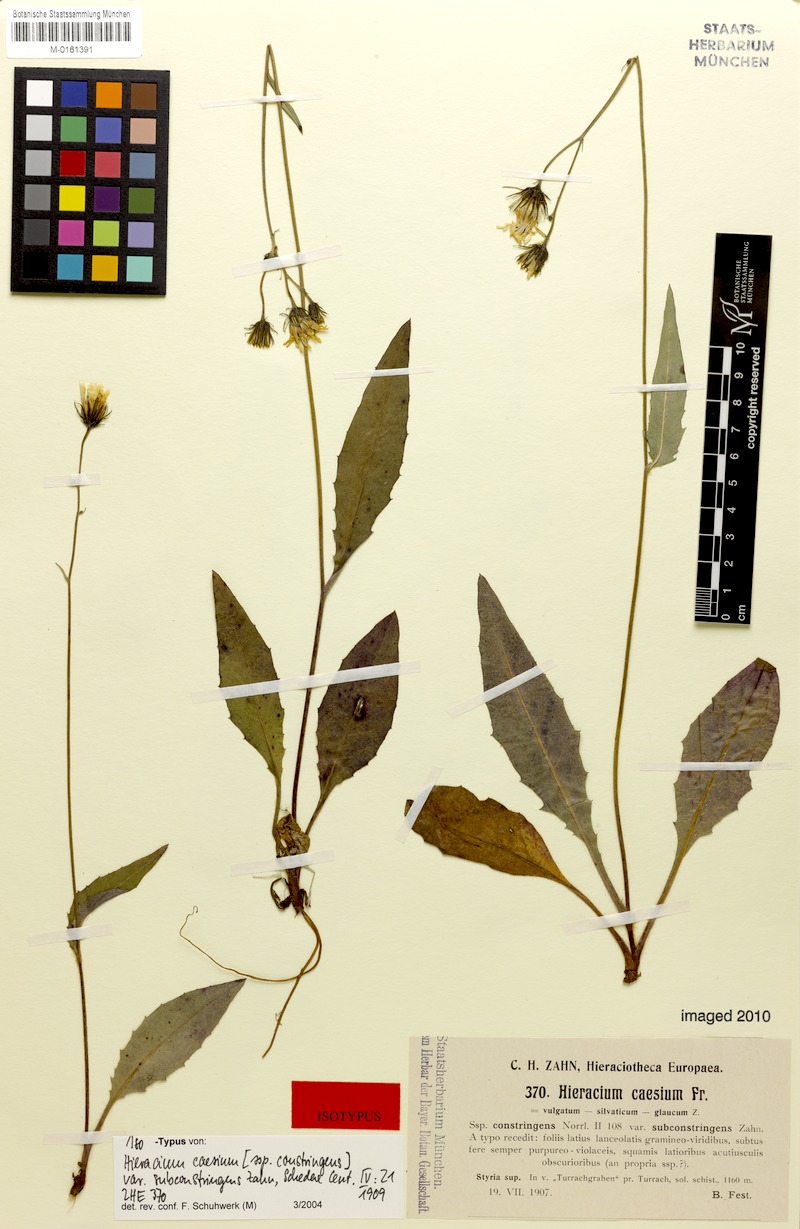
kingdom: Plantae
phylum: Tracheophyta
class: Magnoliopsida
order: Asterales
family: Asteraceae
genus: Hieracium
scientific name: Hieracium caesium
